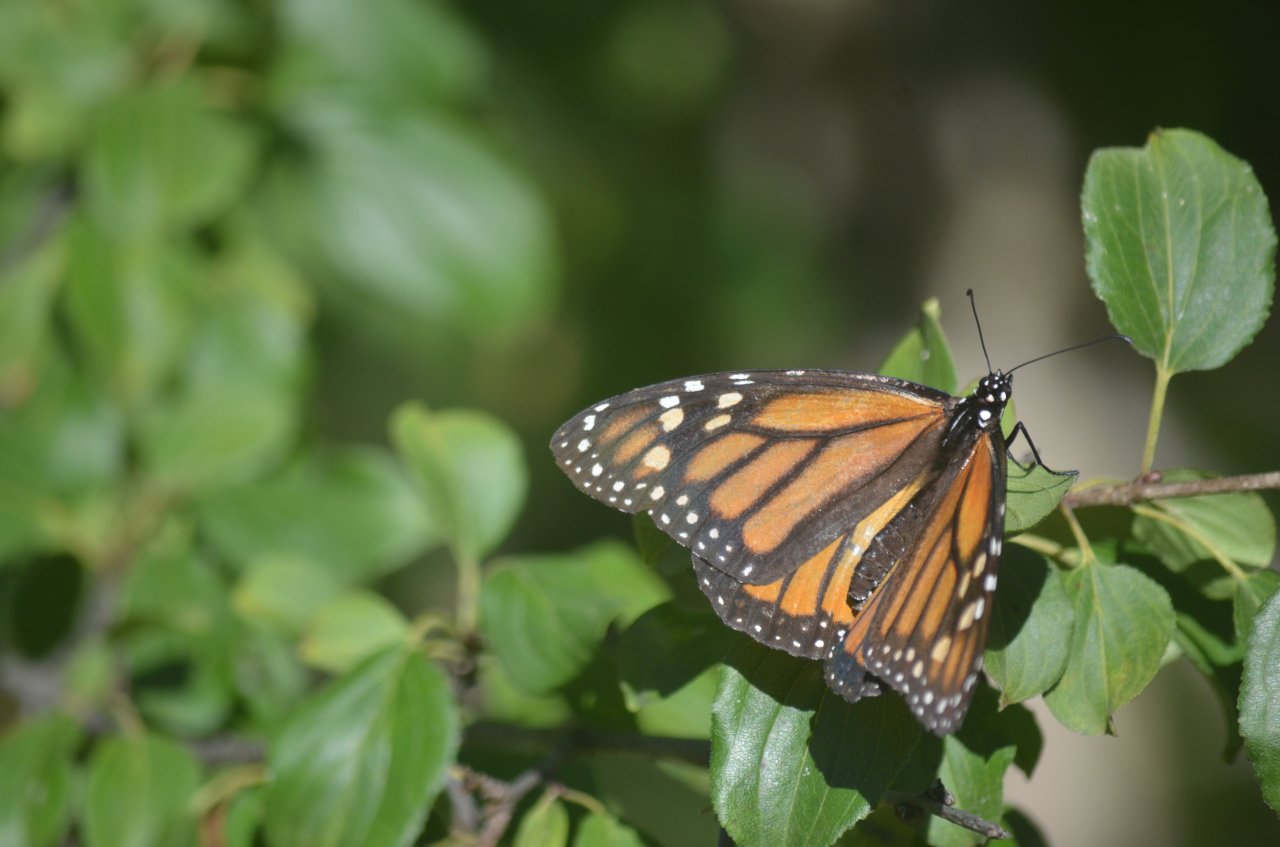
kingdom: Animalia
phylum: Arthropoda
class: Insecta
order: Lepidoptera
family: Nymphalidae
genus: Danaus
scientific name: Danaus plexippus
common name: Monarch
